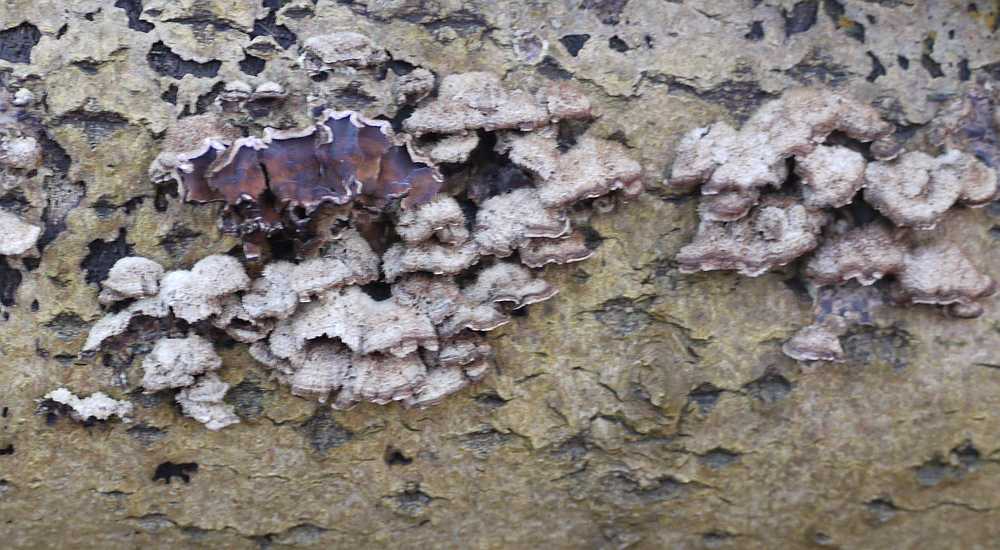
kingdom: Fungi
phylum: Basidiomycota
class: Agaricomycetes
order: Agaricales
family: Cyphellaceae
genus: Chondrostereum
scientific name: Chondrostereum purpureum
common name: purpurlædersvamp
